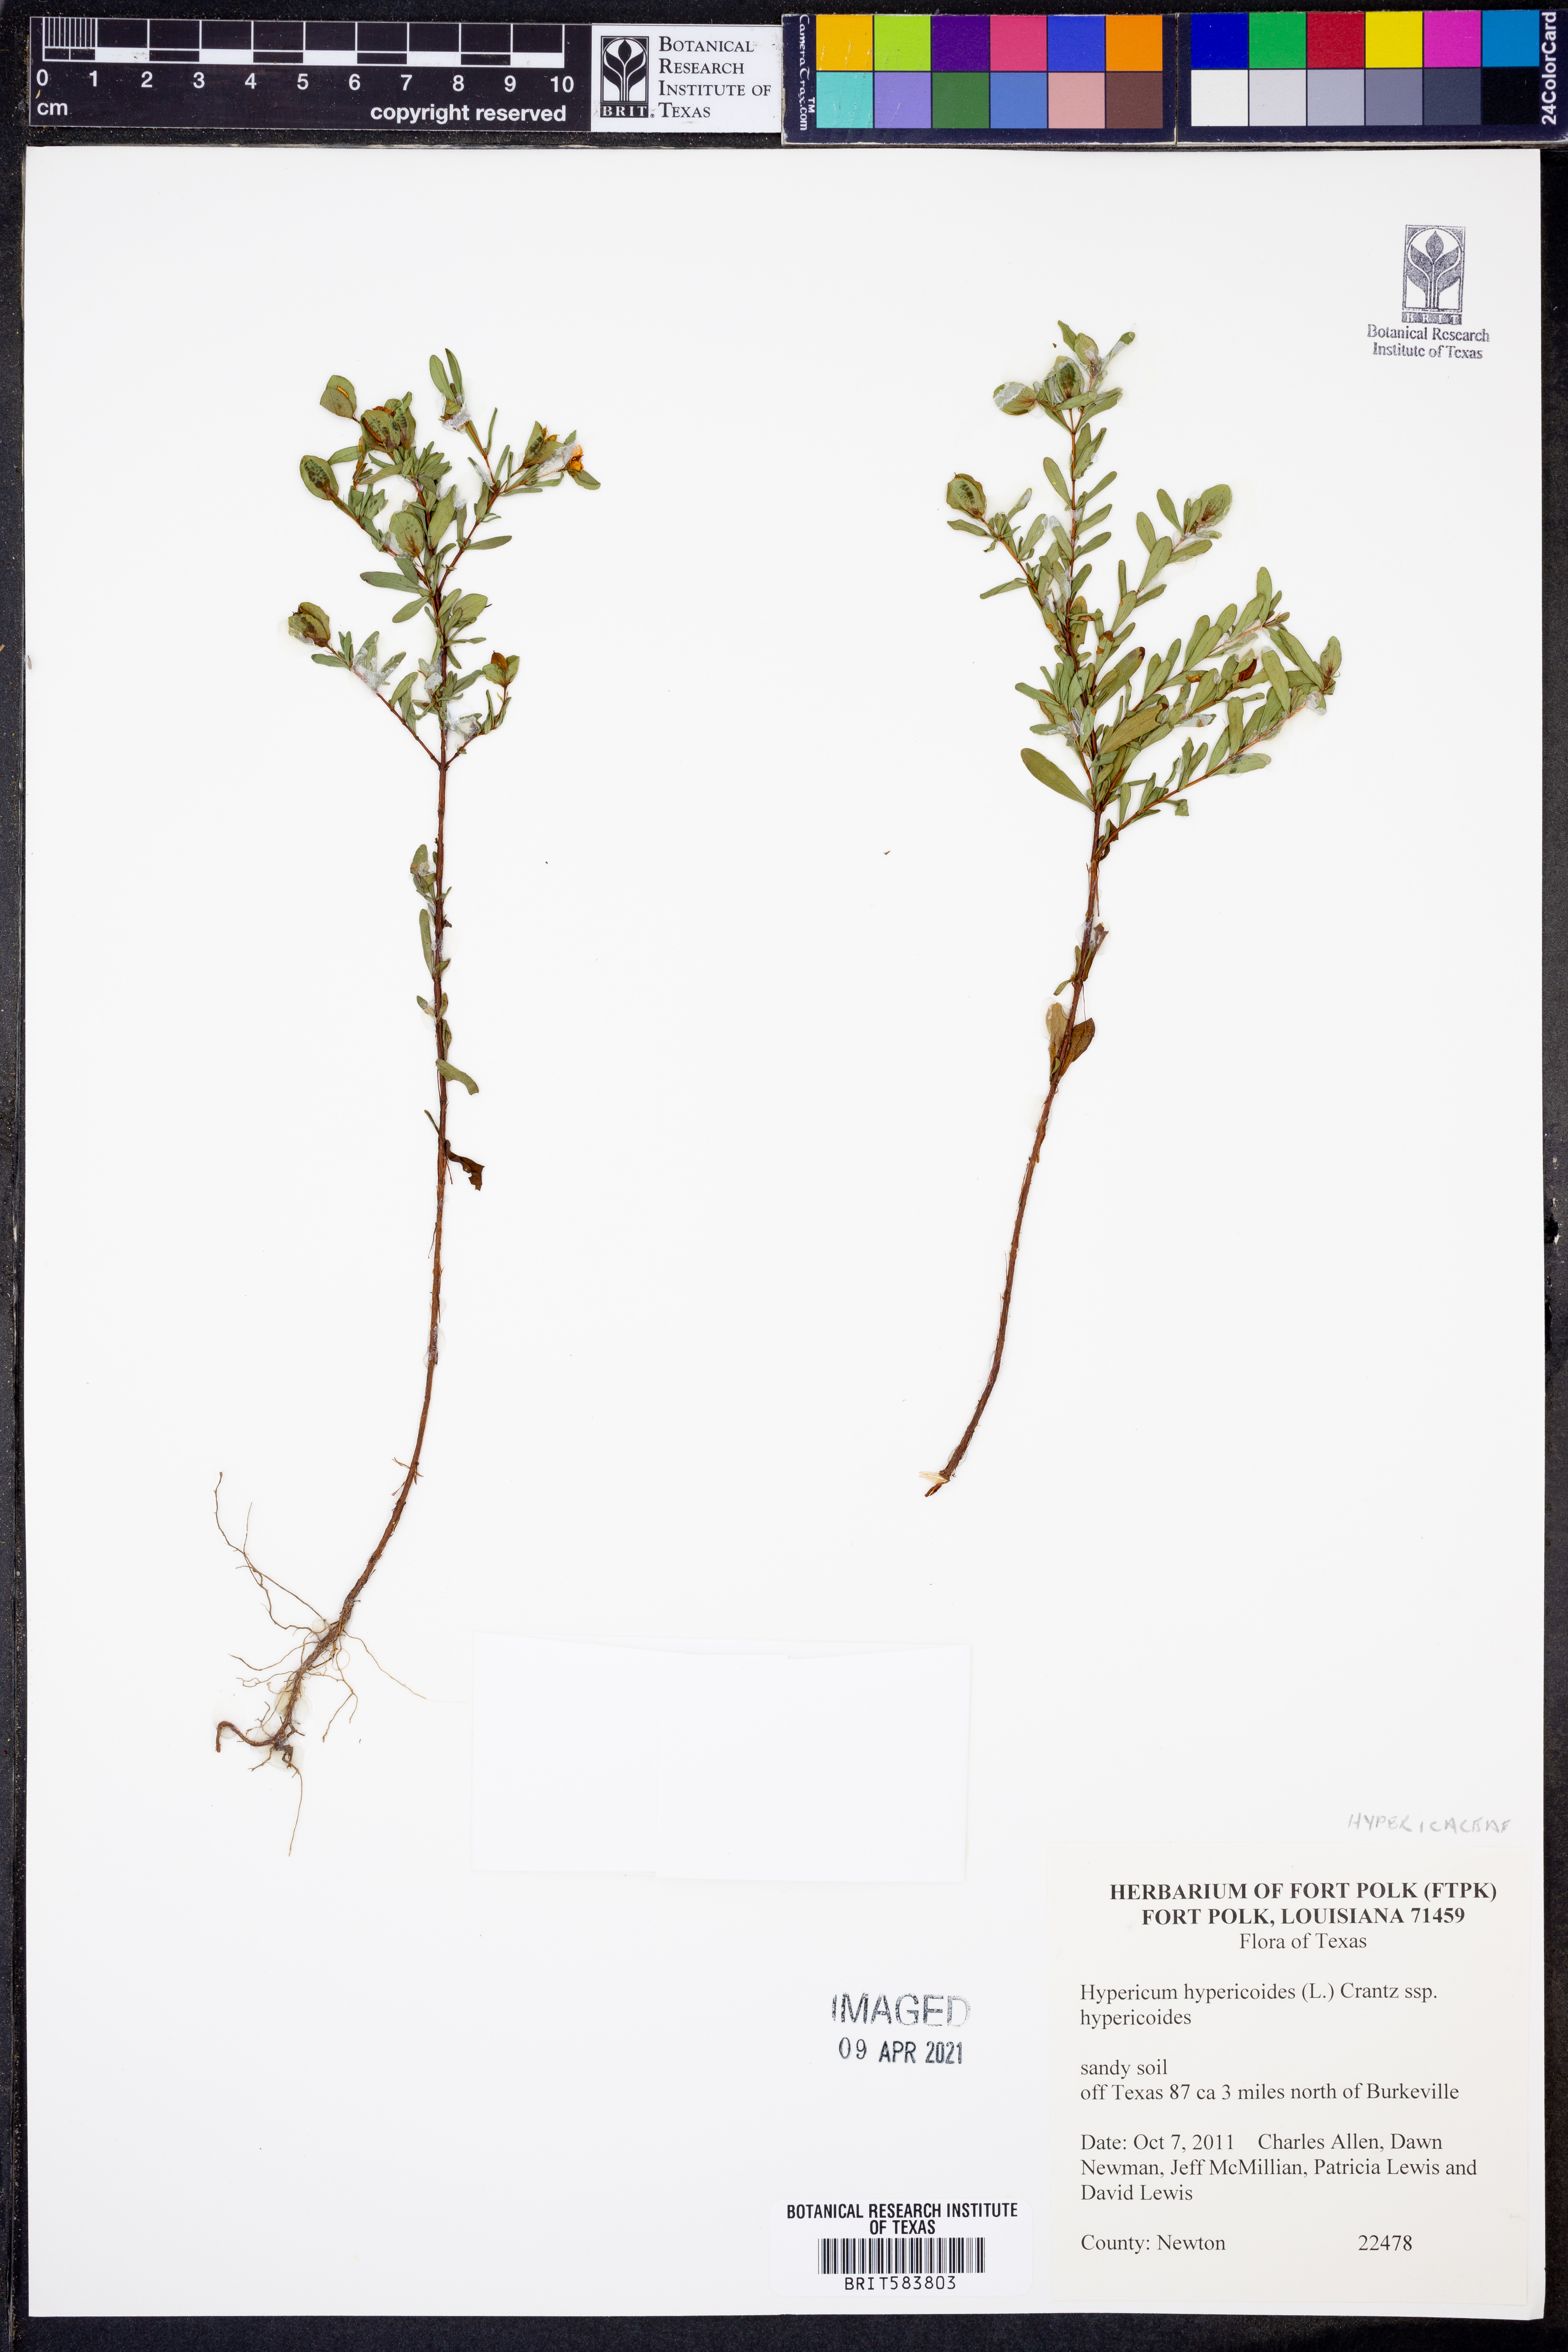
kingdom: Plantae
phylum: Tracheophyta
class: Magnoliopsida
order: Malpighiales
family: Hypericaceae
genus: Hypericum
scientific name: Hypericum hypericoides
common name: St. andrew's cross
